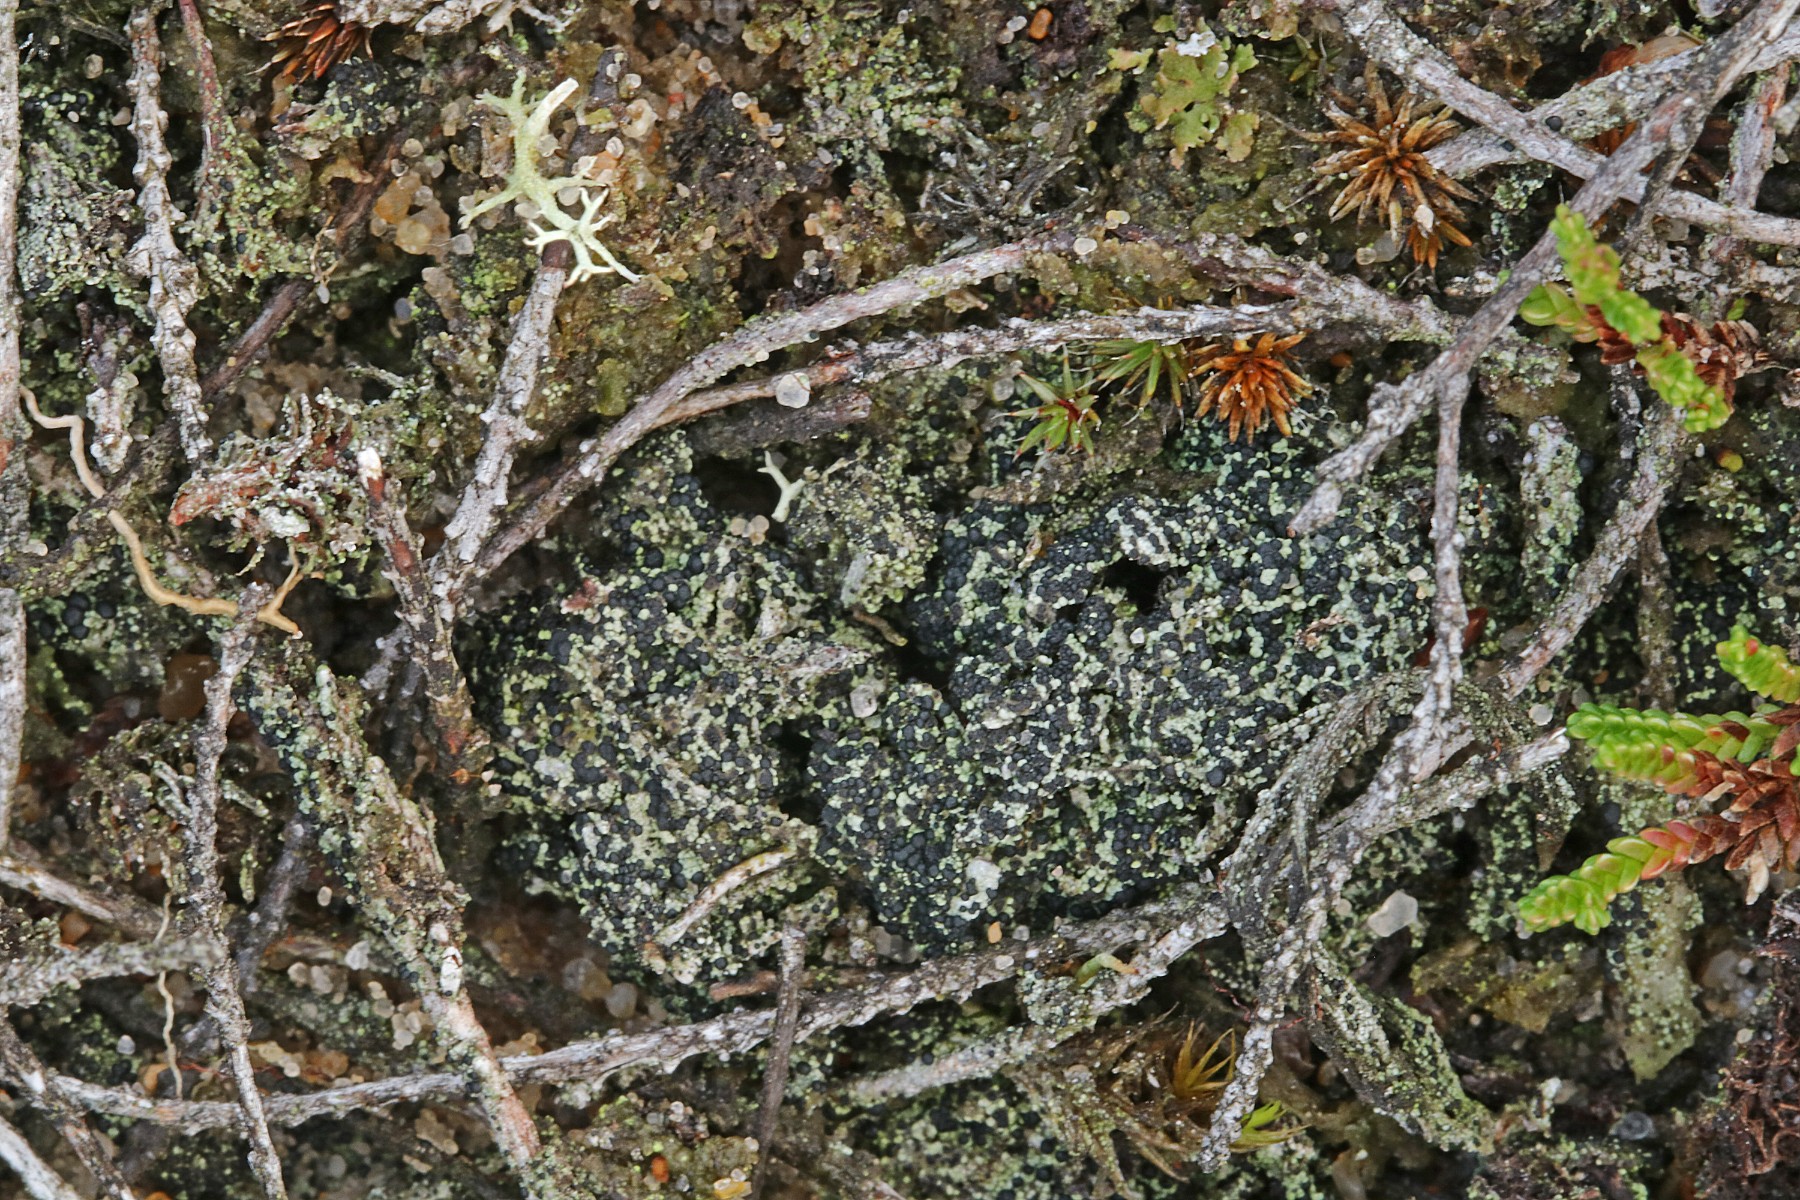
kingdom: Fungi
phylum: Ascomycota
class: Lecanoromycetes
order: Lecanorales
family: Byssolomataceae
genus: Micarea
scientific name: Micarea lignaria
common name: tørve-knaplav
